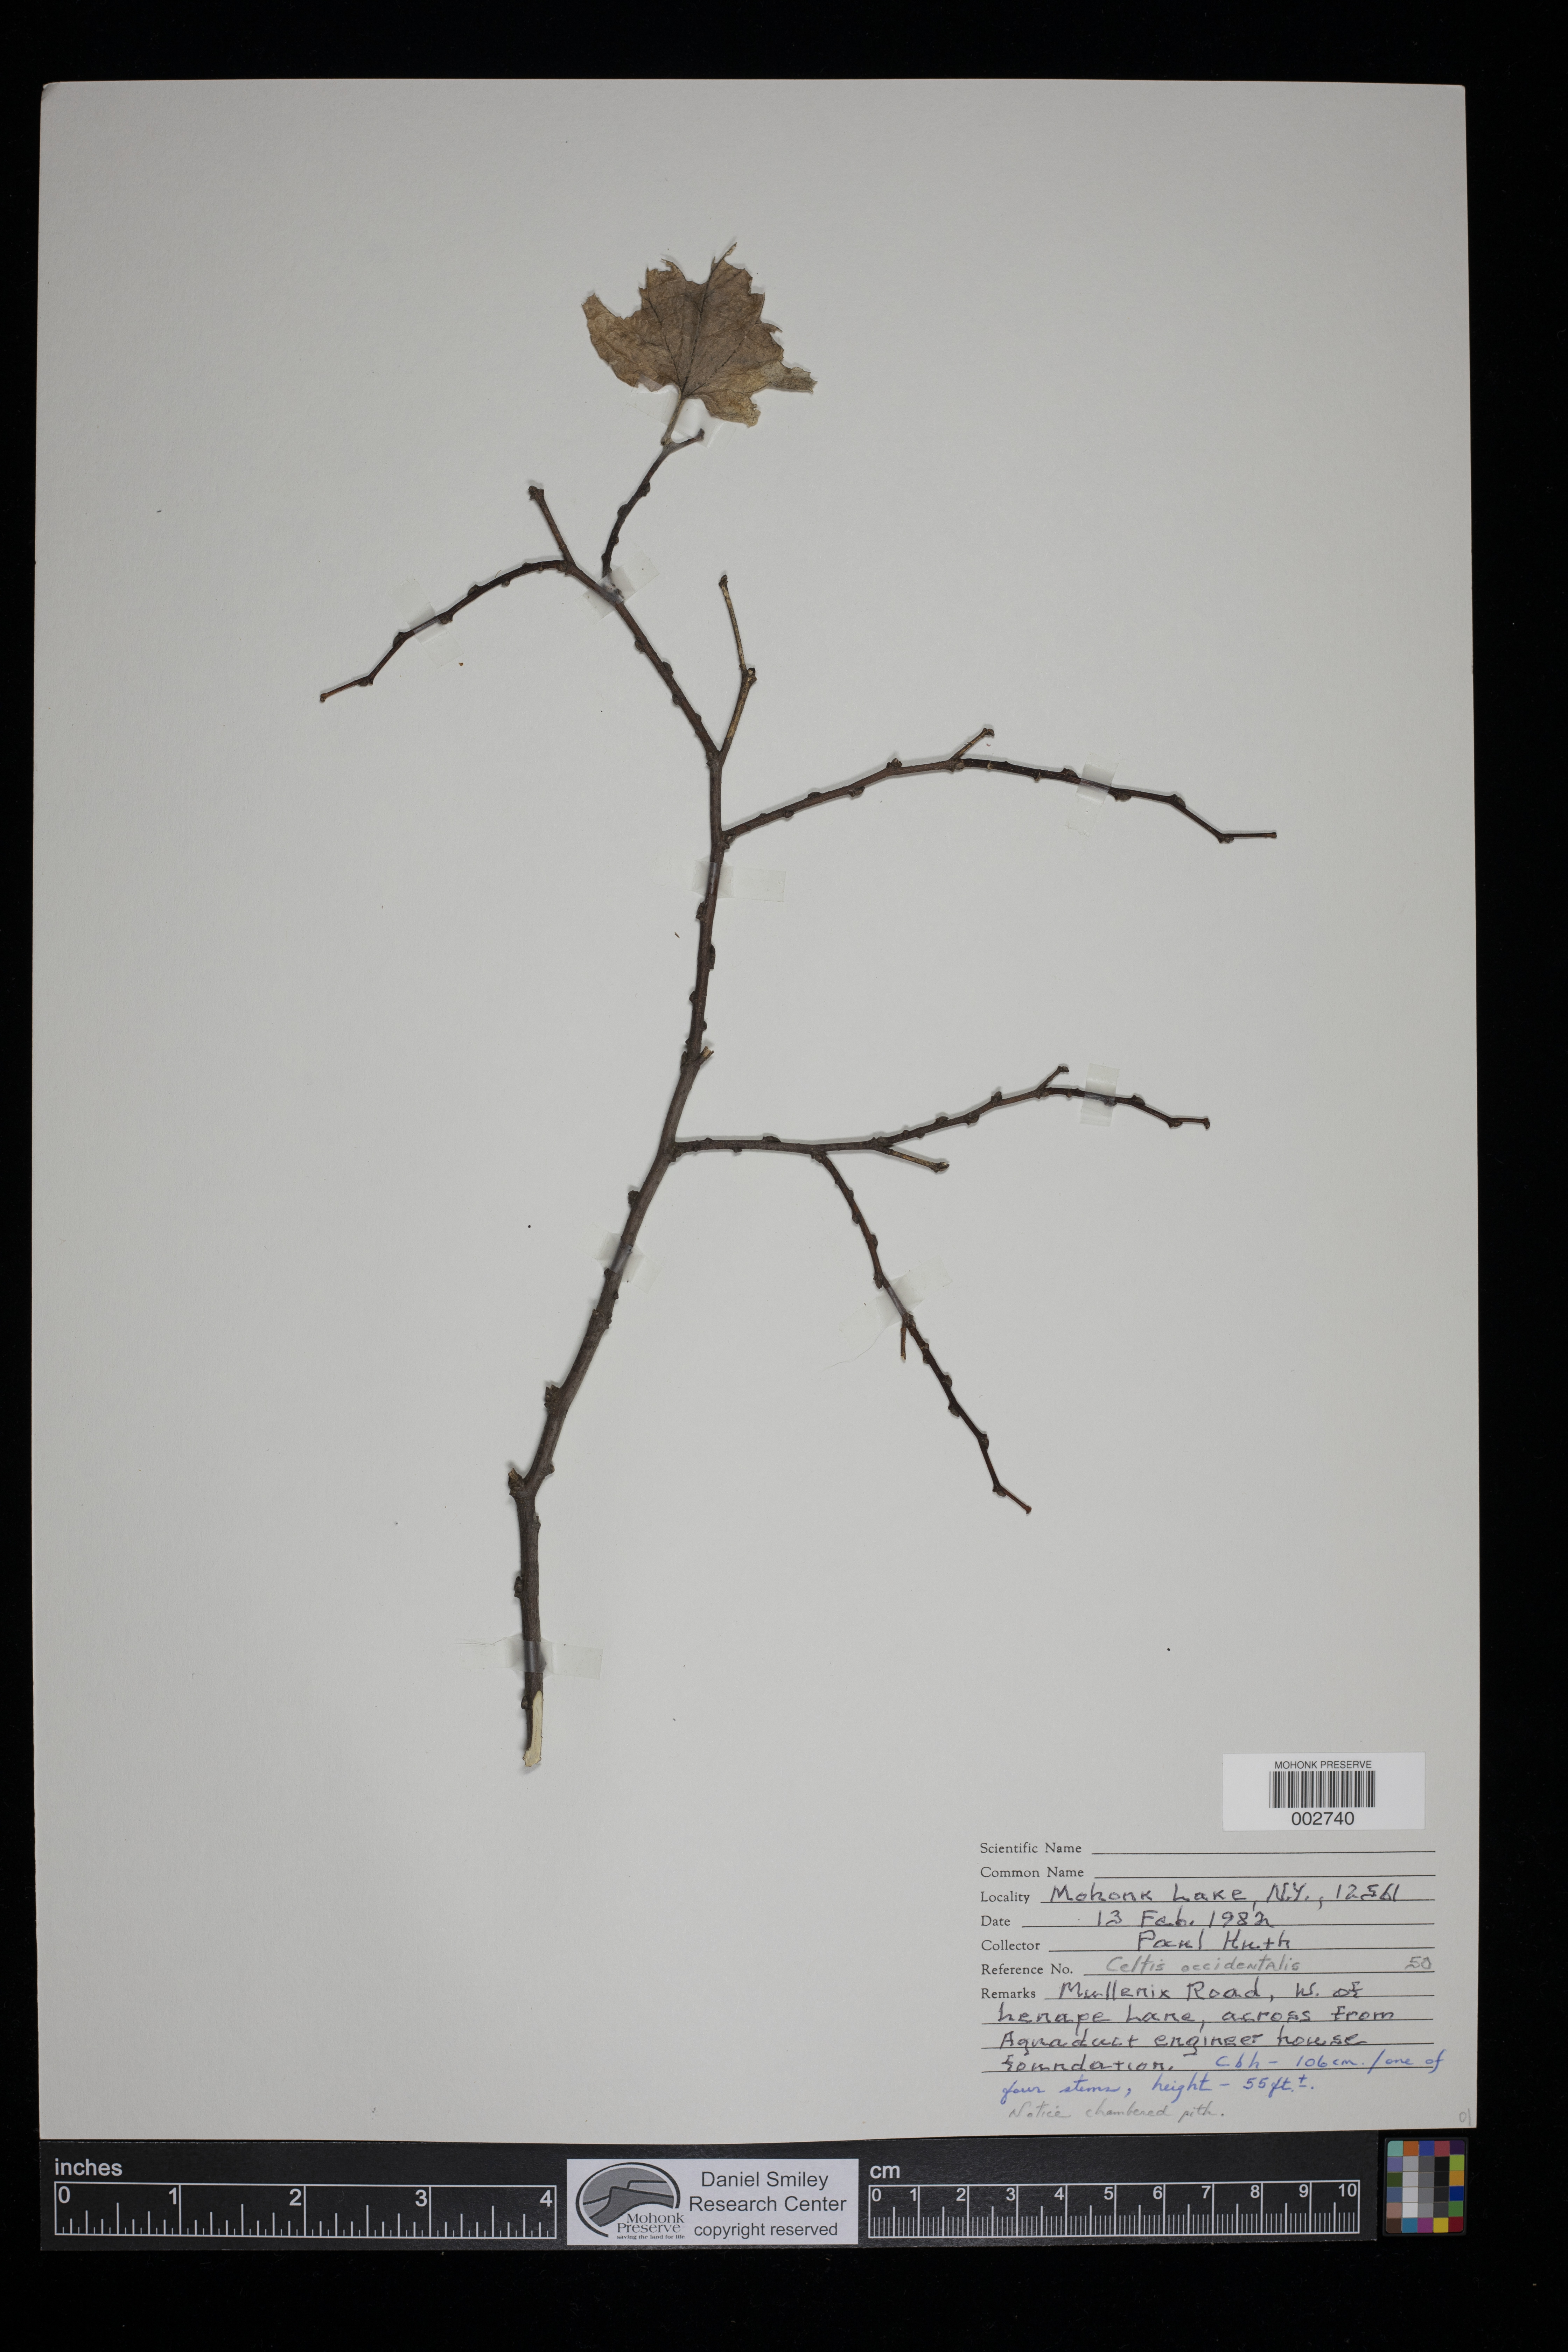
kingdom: Plantae
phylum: Tracheophyta
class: Magnoliopsida
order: Rosales
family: Cannabaceae
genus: Celtis
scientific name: Celtis occidentalis
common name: Common hackberry
